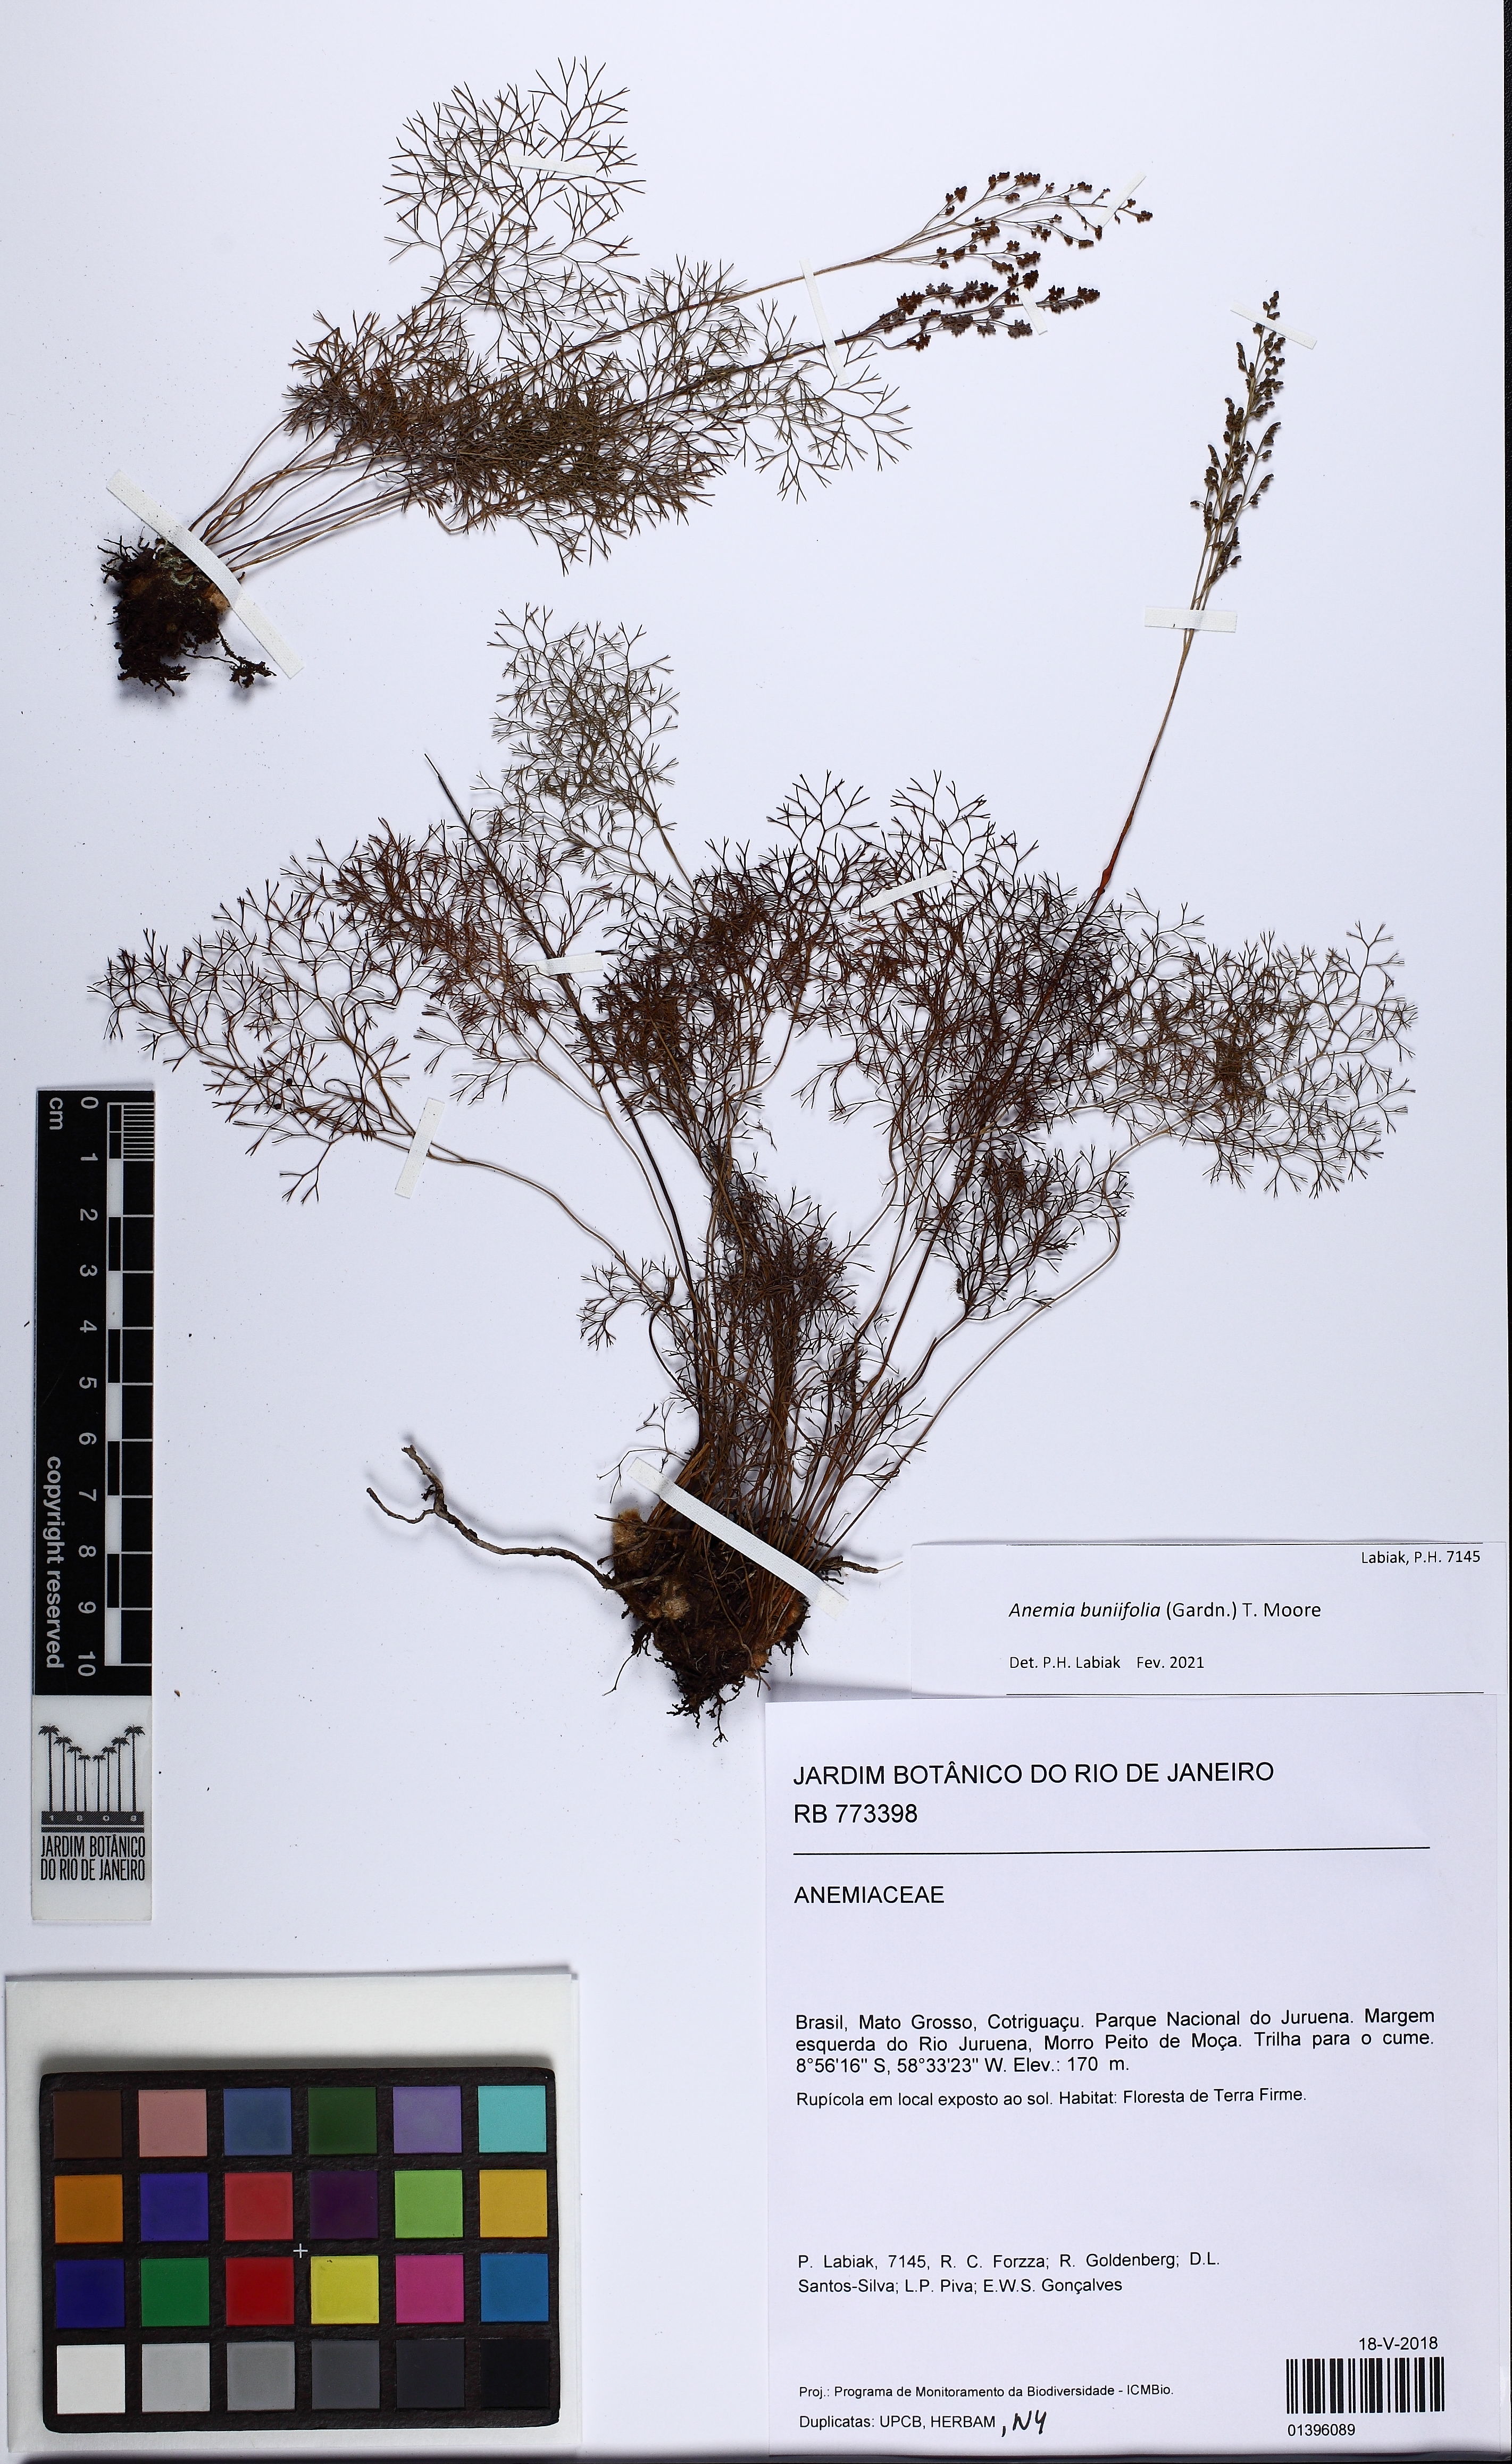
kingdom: Plantae
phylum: Tracheophyta
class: Polypodiopsida
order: Schizaeales
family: Anemiaceae
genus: Anemia
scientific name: Anemia buniifolia
